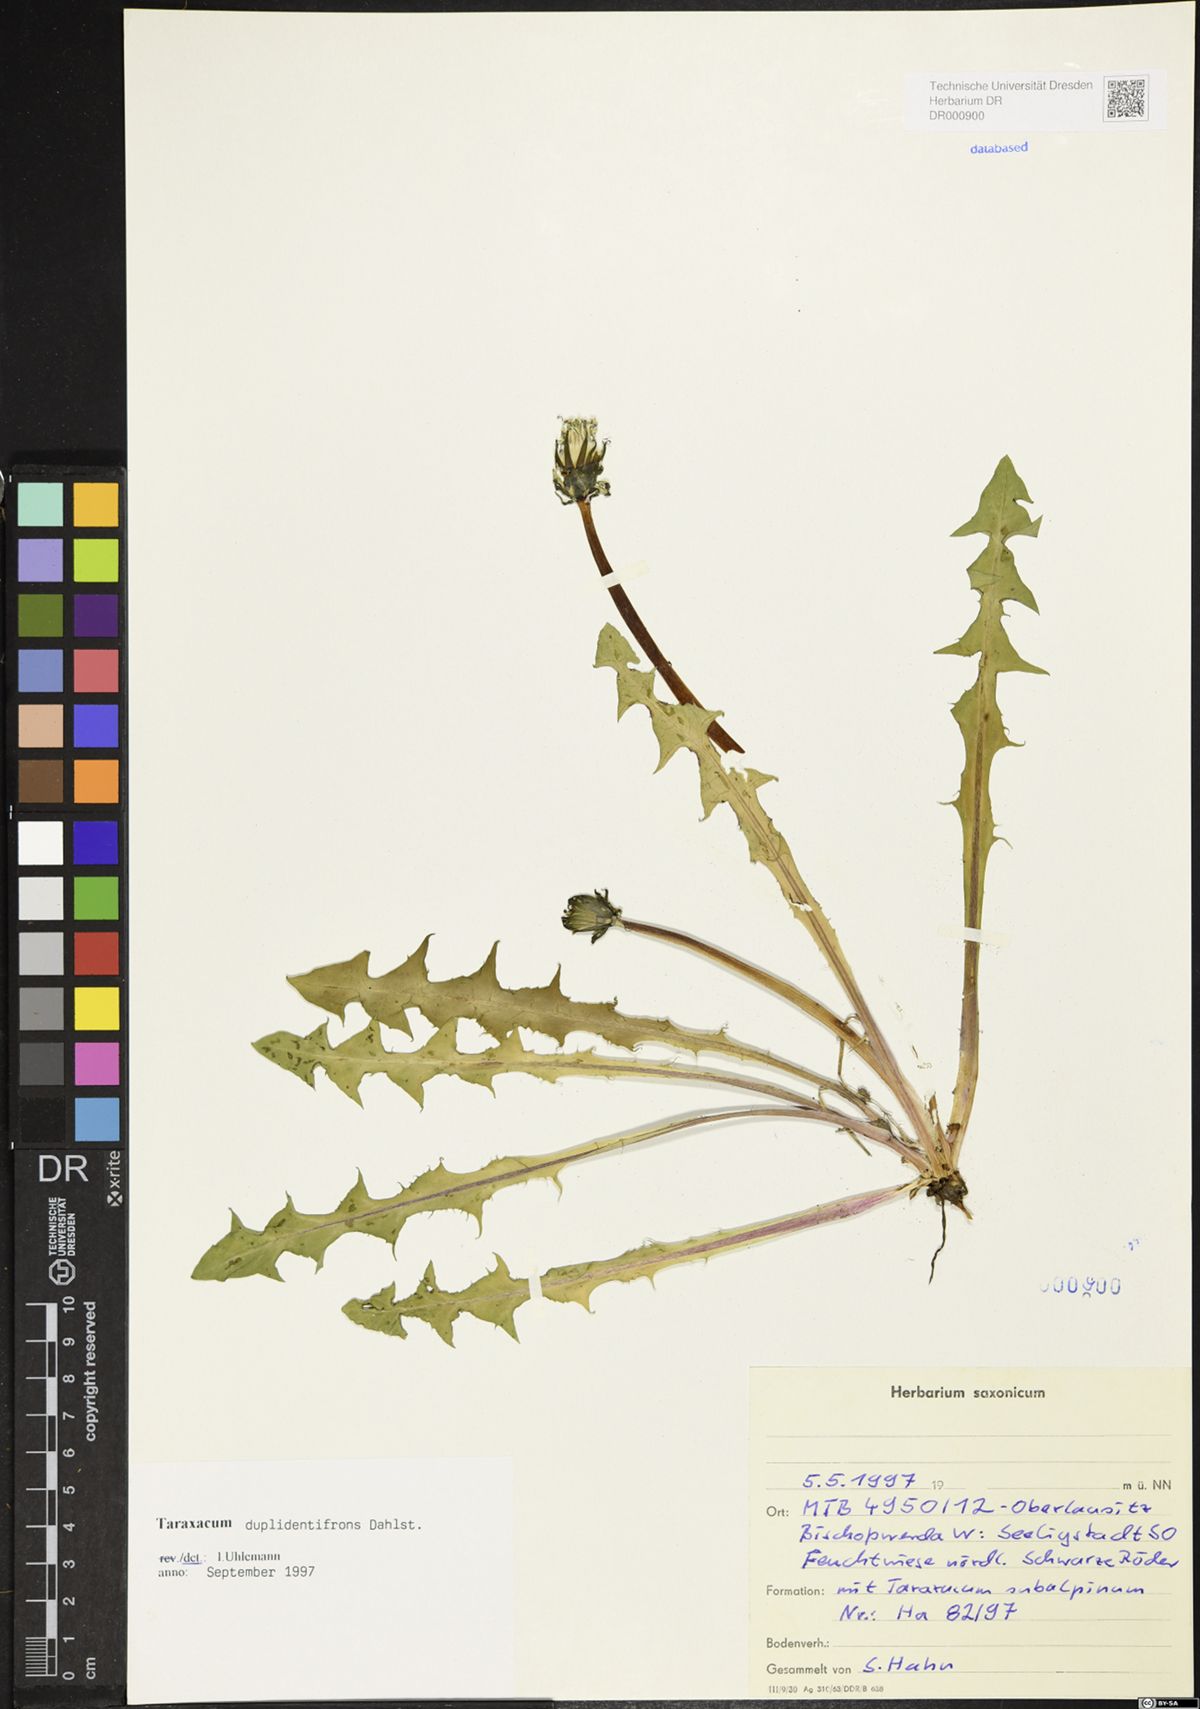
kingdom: Plantae
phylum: Tracheophyta
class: Magnoliopsida
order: Asterales
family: Asteraceae
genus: Taraxacum
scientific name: Taraxacum duplidentifrons
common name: Double-toothed dandelion
